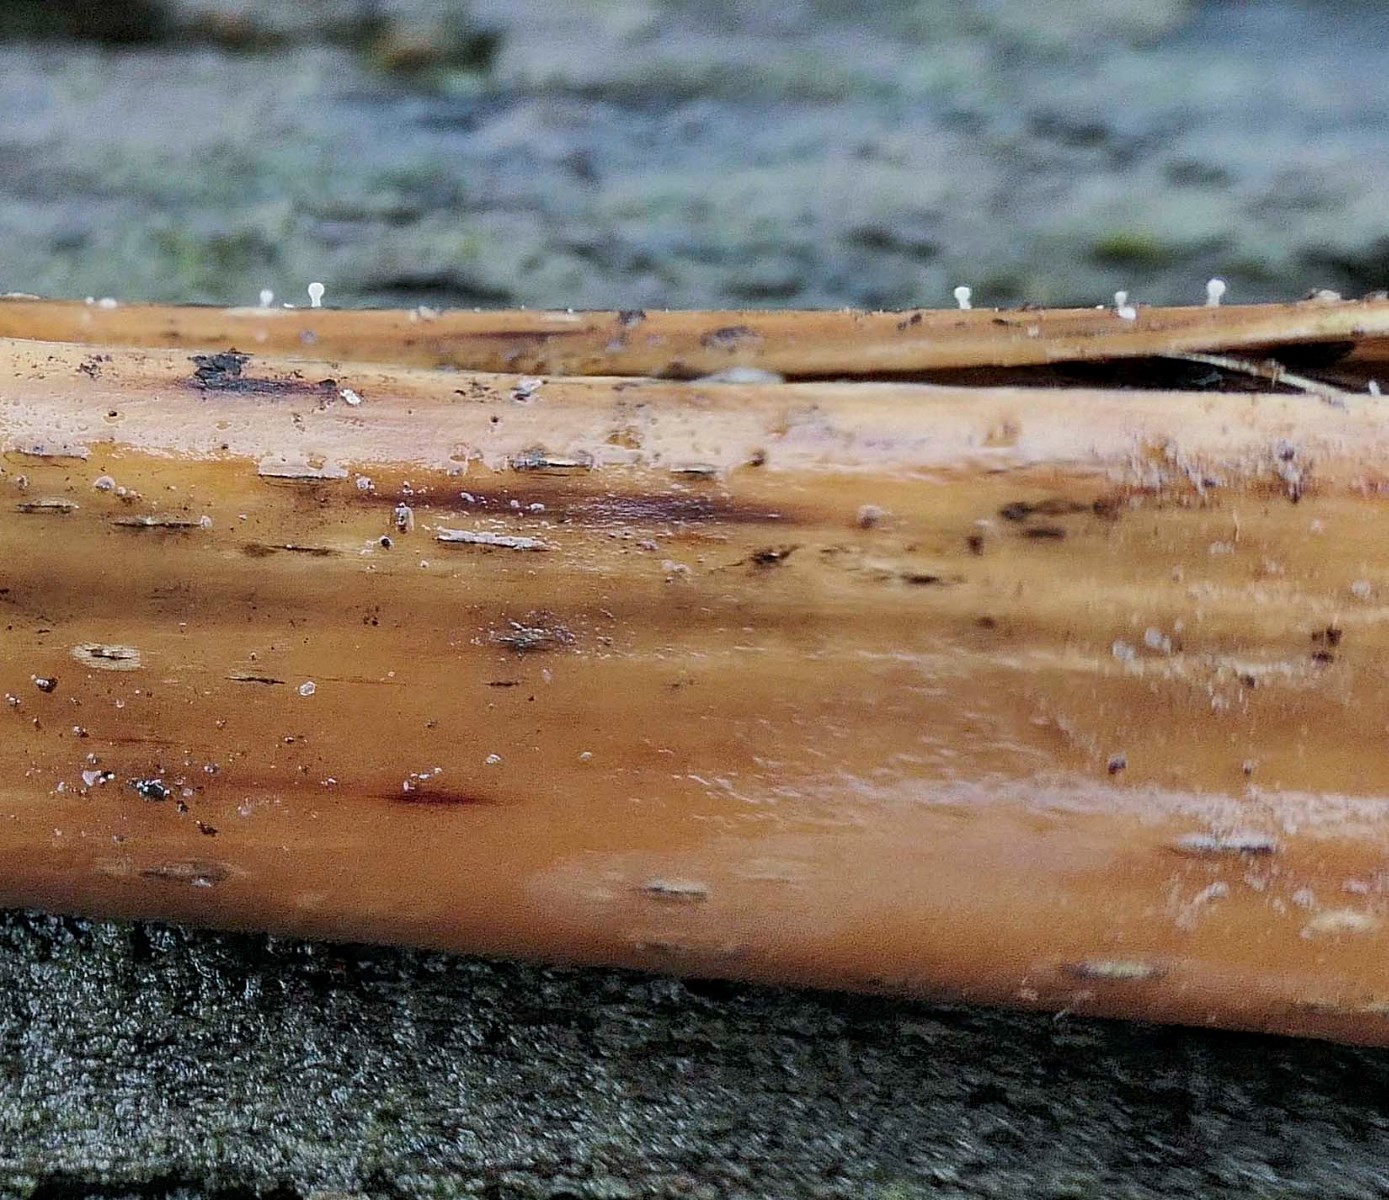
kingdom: Fungi
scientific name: Fungi
